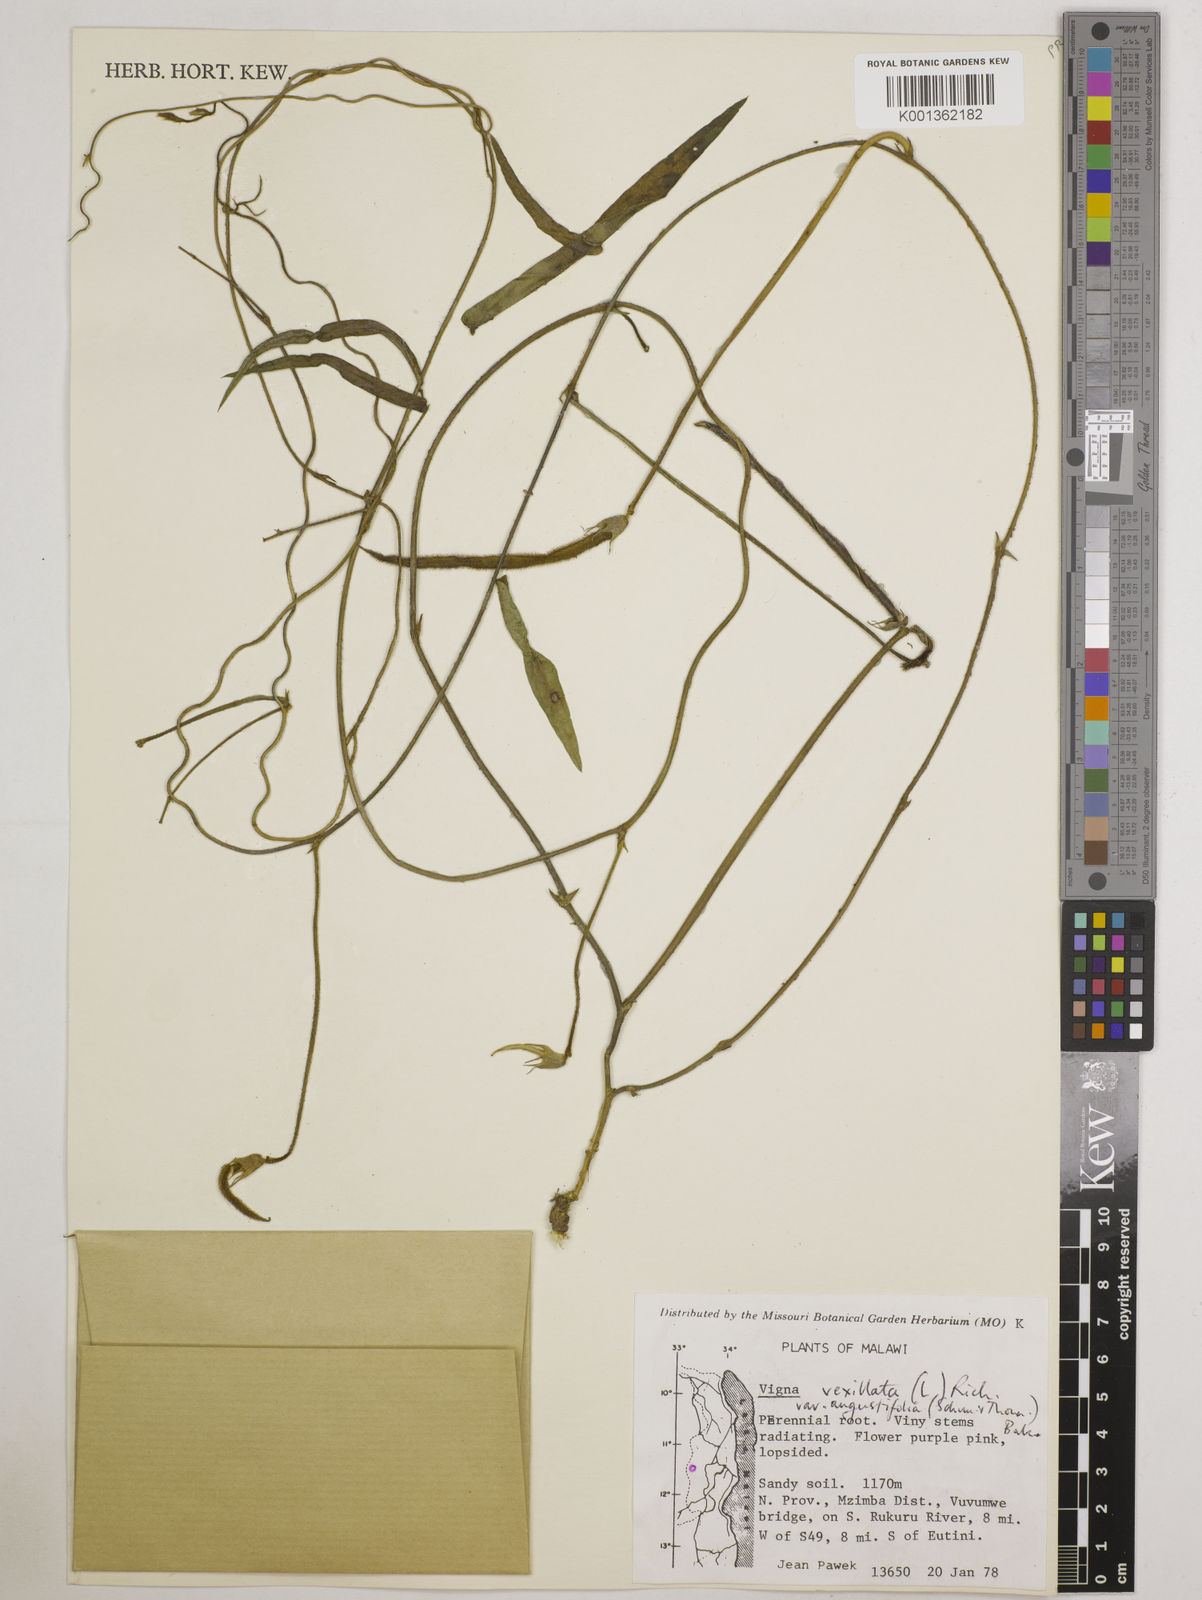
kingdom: Plantae
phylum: Tracheophyta
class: Magnoliopsida
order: Fabales
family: Fabaceae
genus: Vigna
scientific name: Vigna vexillata
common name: Zombi pea
